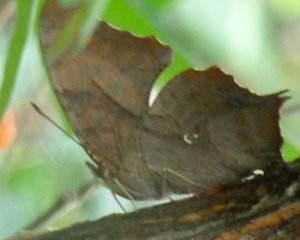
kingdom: Animalia
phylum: Arthropoda
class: Insecta
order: Lepidoptera
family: Nymphalidae
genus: Polygonia
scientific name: Polygonia interrogationis
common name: Question Mark
